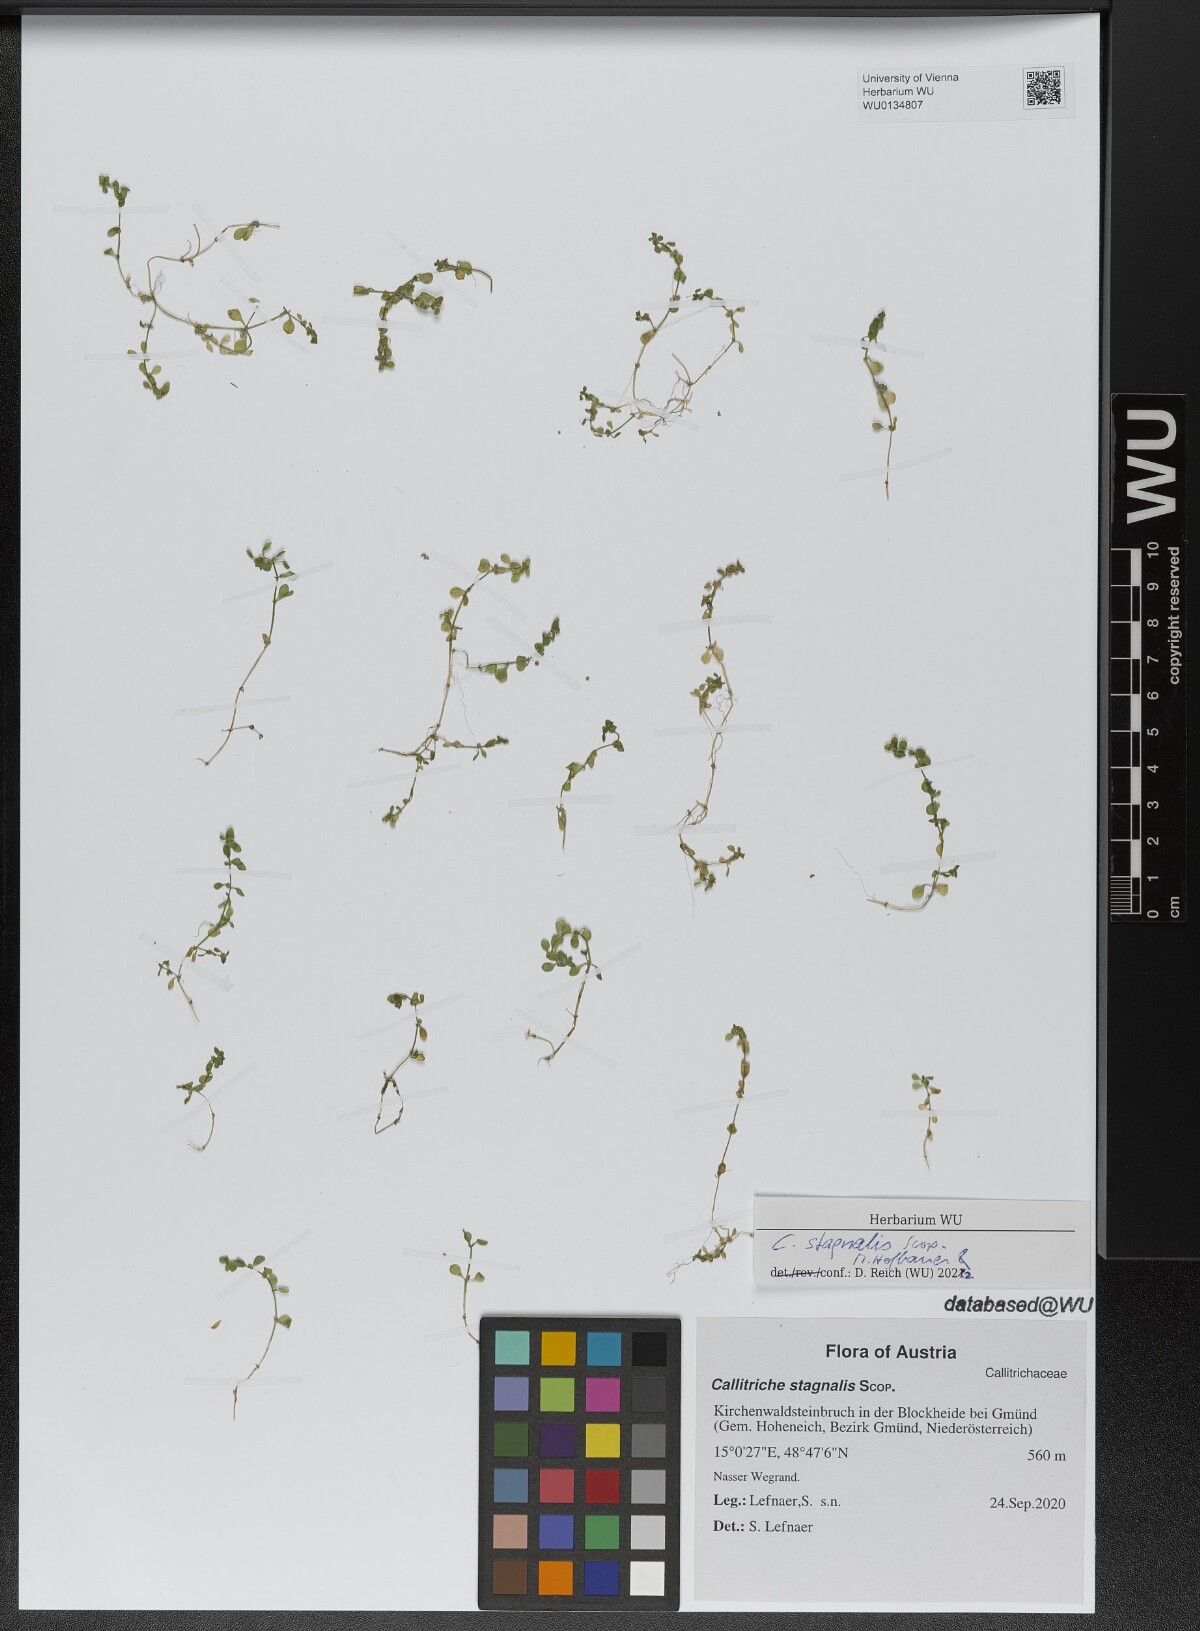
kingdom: Plantae
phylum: Tracheophyta
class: Magnoliopsida
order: Lamiales
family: Plantaginaceae
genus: Callitriche
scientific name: Callitriche stagnalis
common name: Common water-starwort
